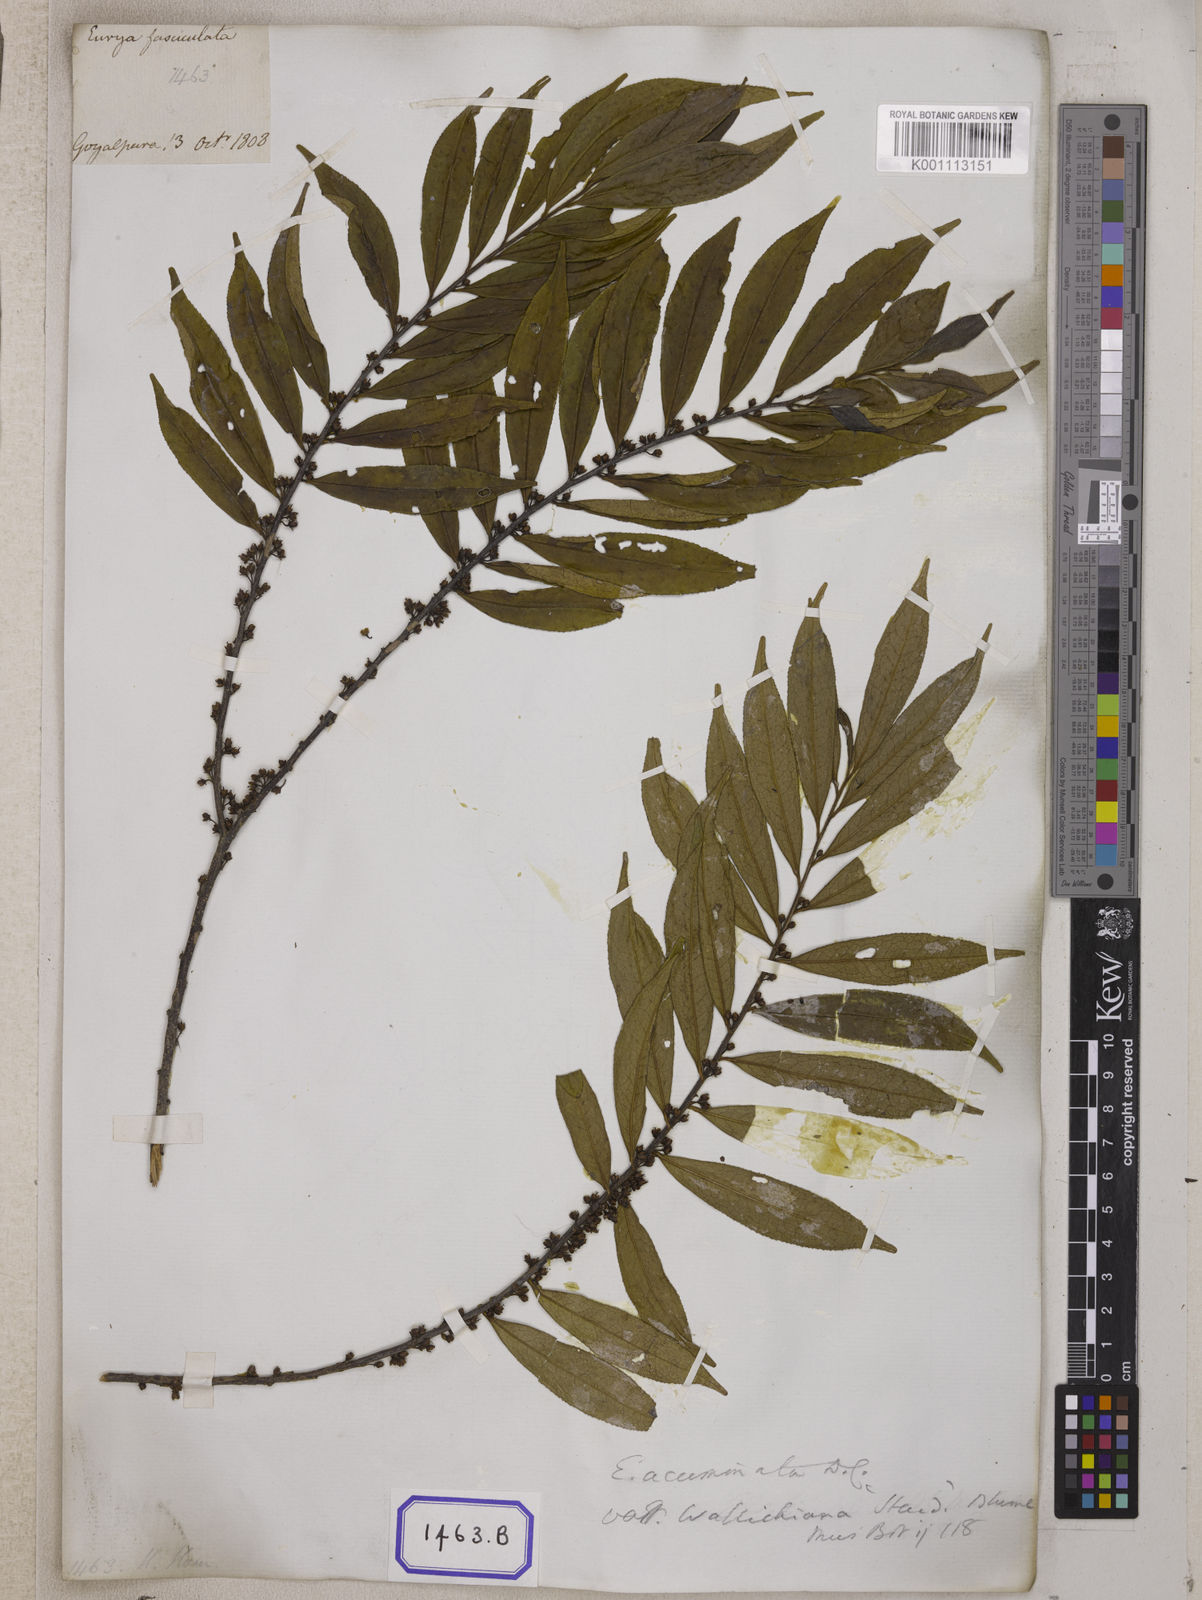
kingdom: Plantae
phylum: Tracheophyta
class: Magnoliopsida
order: Ericales
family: Pentaphylacaceae
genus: Eurya
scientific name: Eurya nitida
